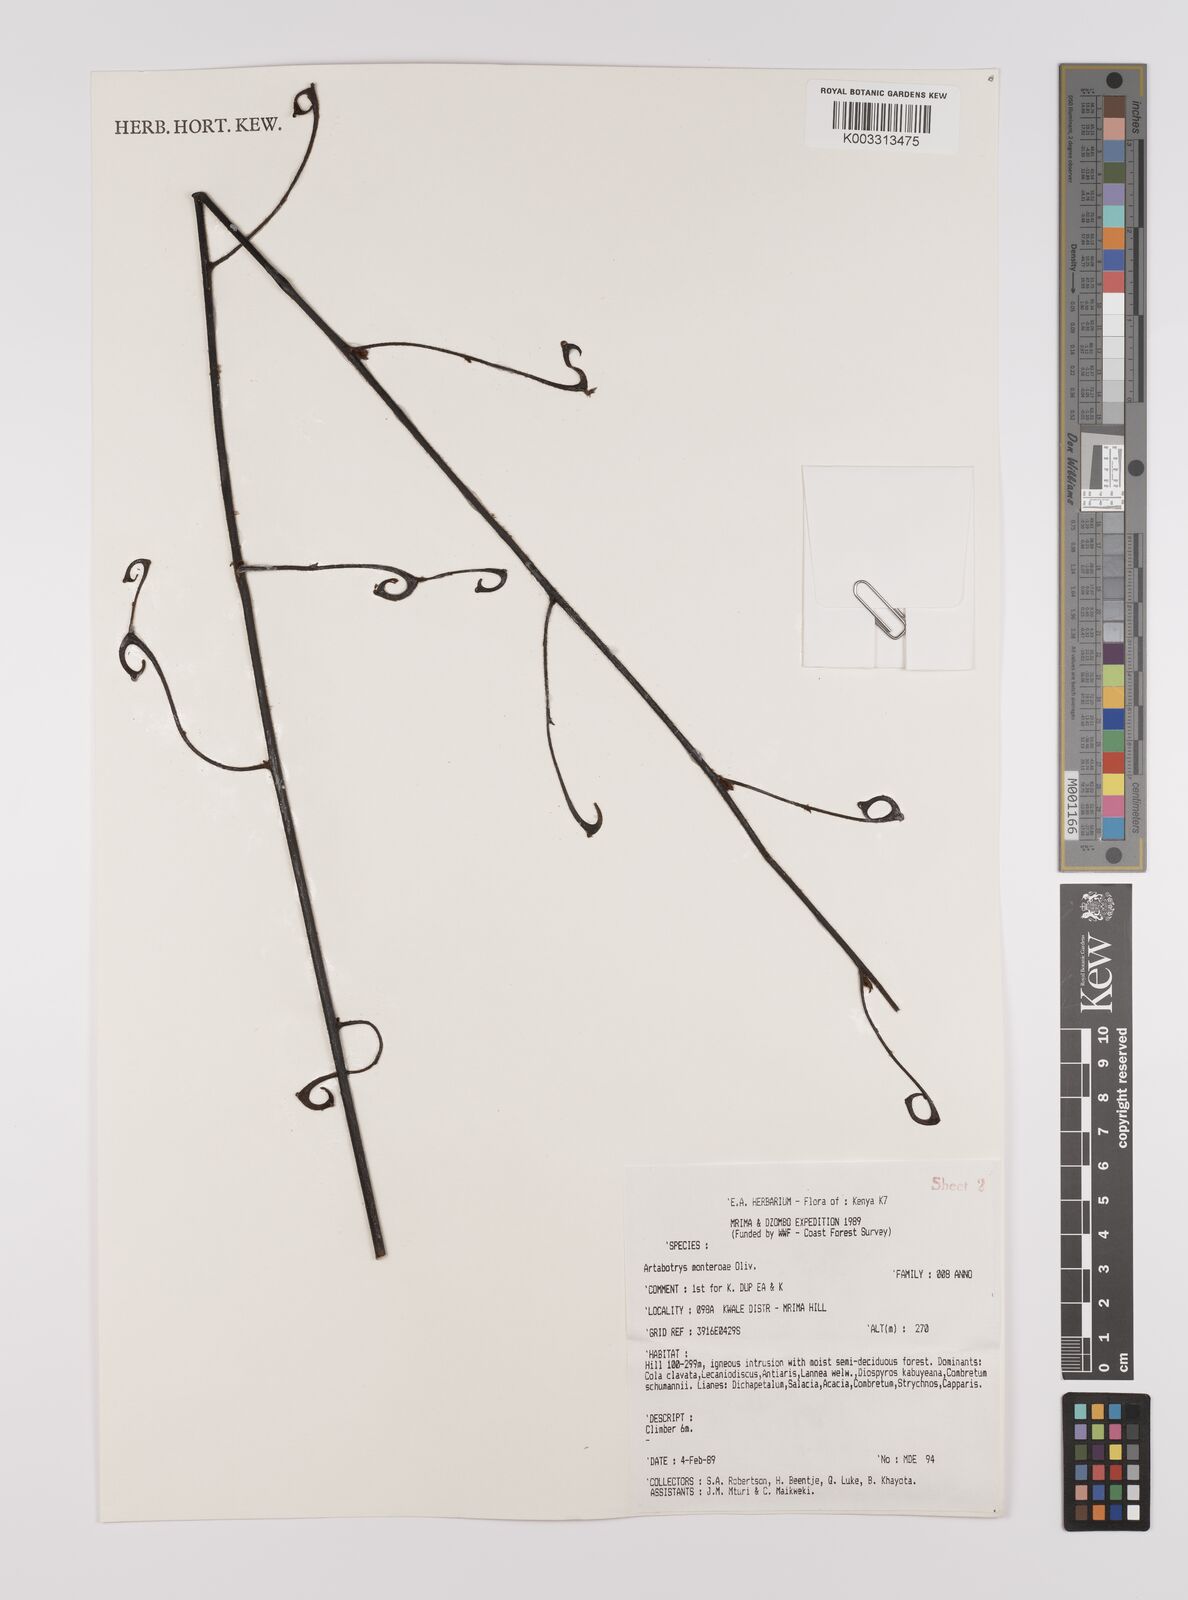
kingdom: Plantae
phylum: Tracheophyta
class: Magnoliopsida
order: Magnoliales
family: Annonaceae
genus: Artabotrys
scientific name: Artabotrys monteiroae
